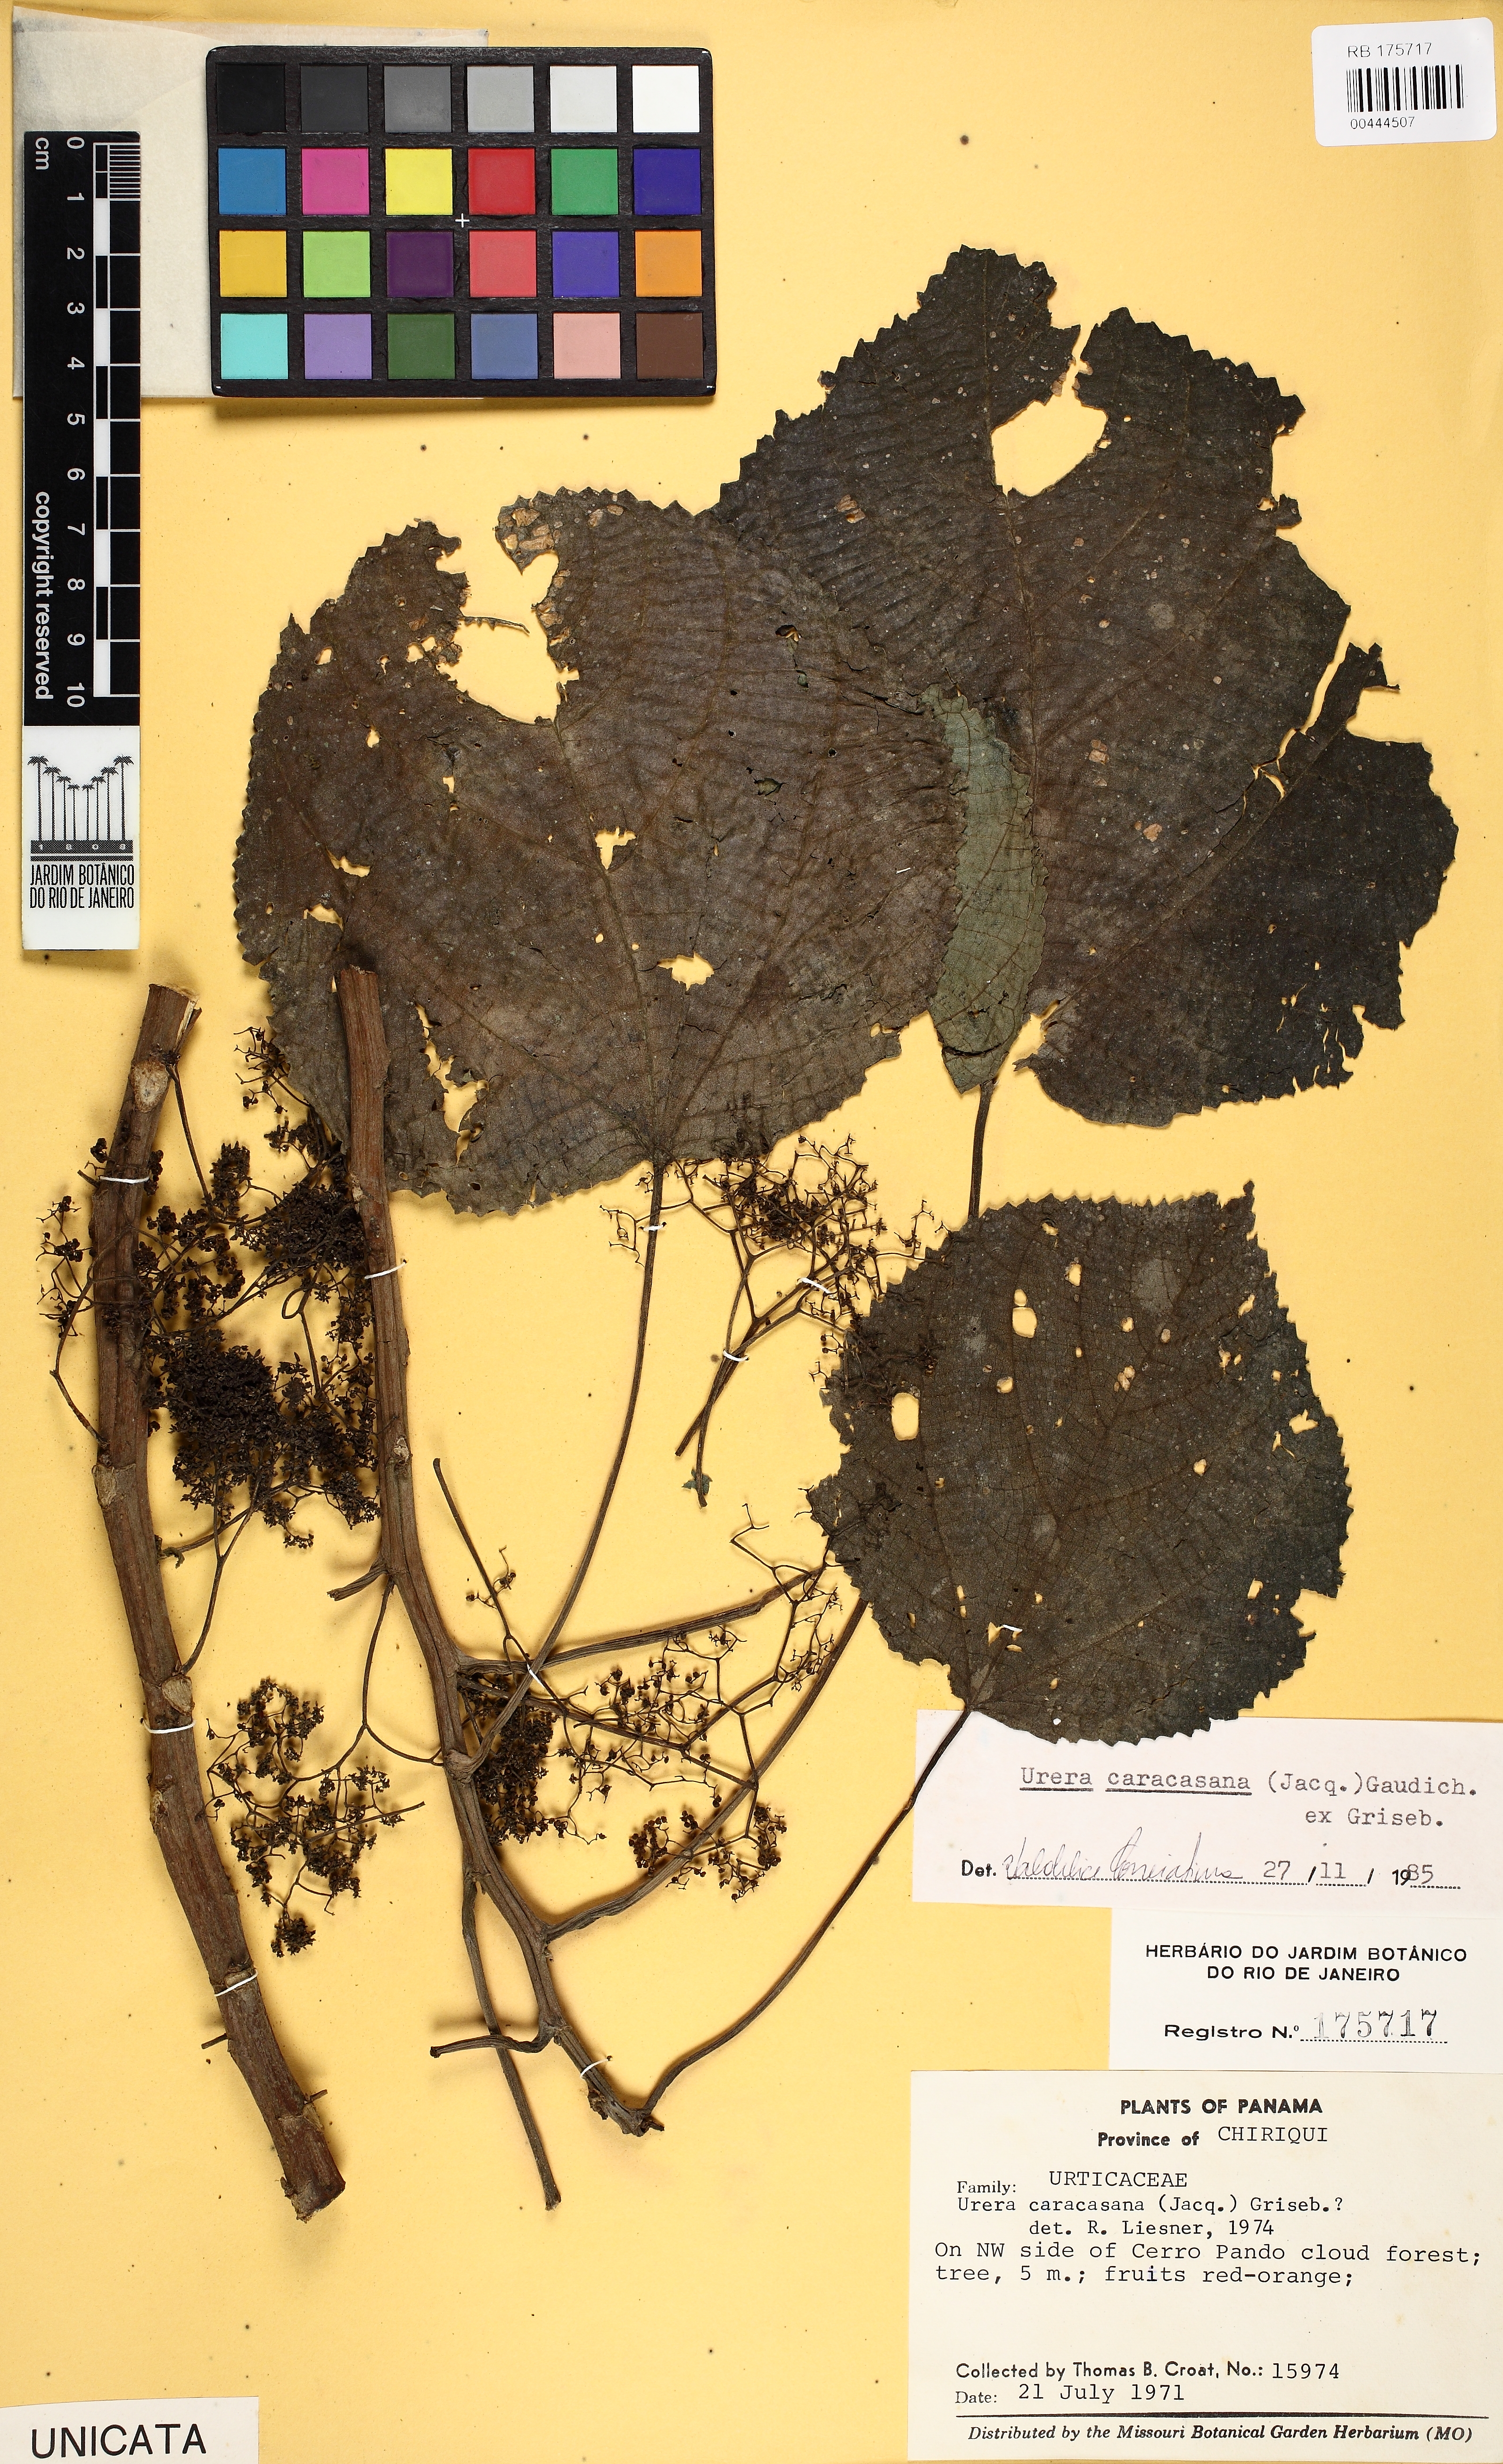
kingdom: Plantae
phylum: Tracheophyta
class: Magnoliopsida
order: Rosales
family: Urticaceae
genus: Urera
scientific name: Urera caracasana
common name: Flameberry
